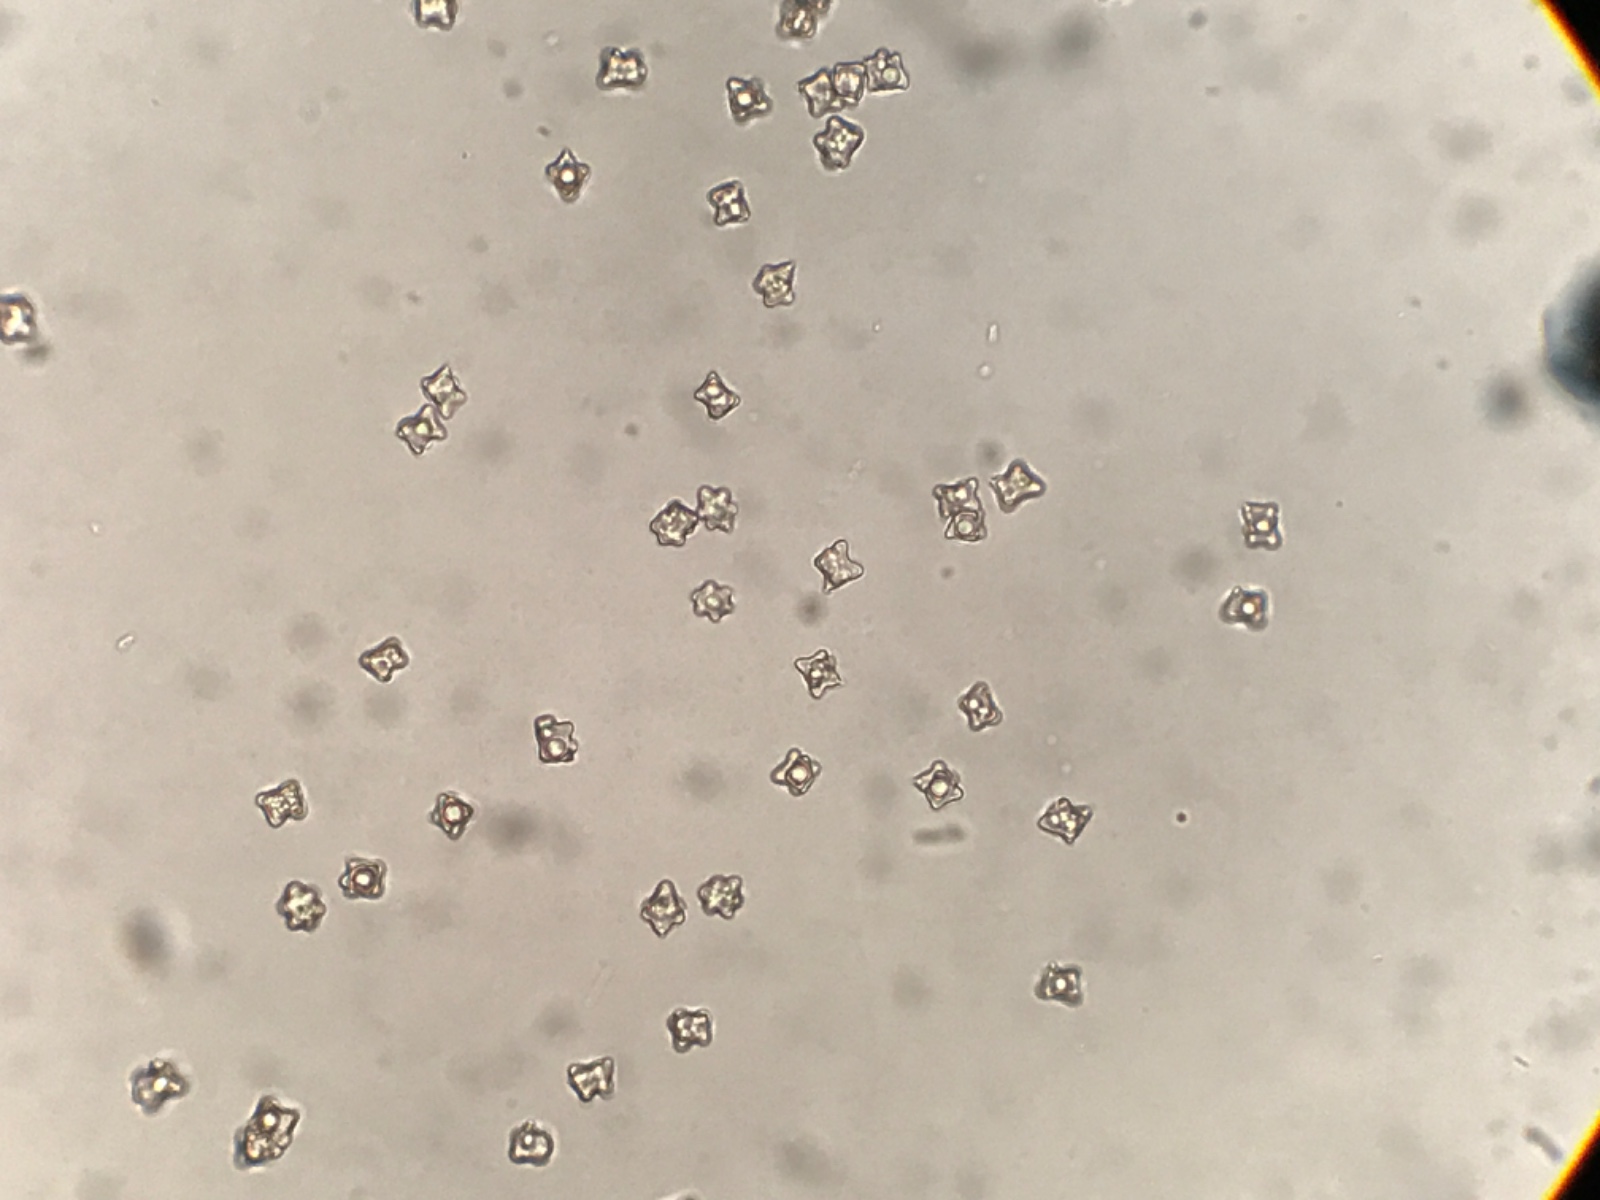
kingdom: Fungi
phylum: Basidiomycota
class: Agaricomycetes
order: Agaricales
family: Entolomataceae
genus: Entoloma
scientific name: Entoloma conferendum
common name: stjernesporet rødblad
